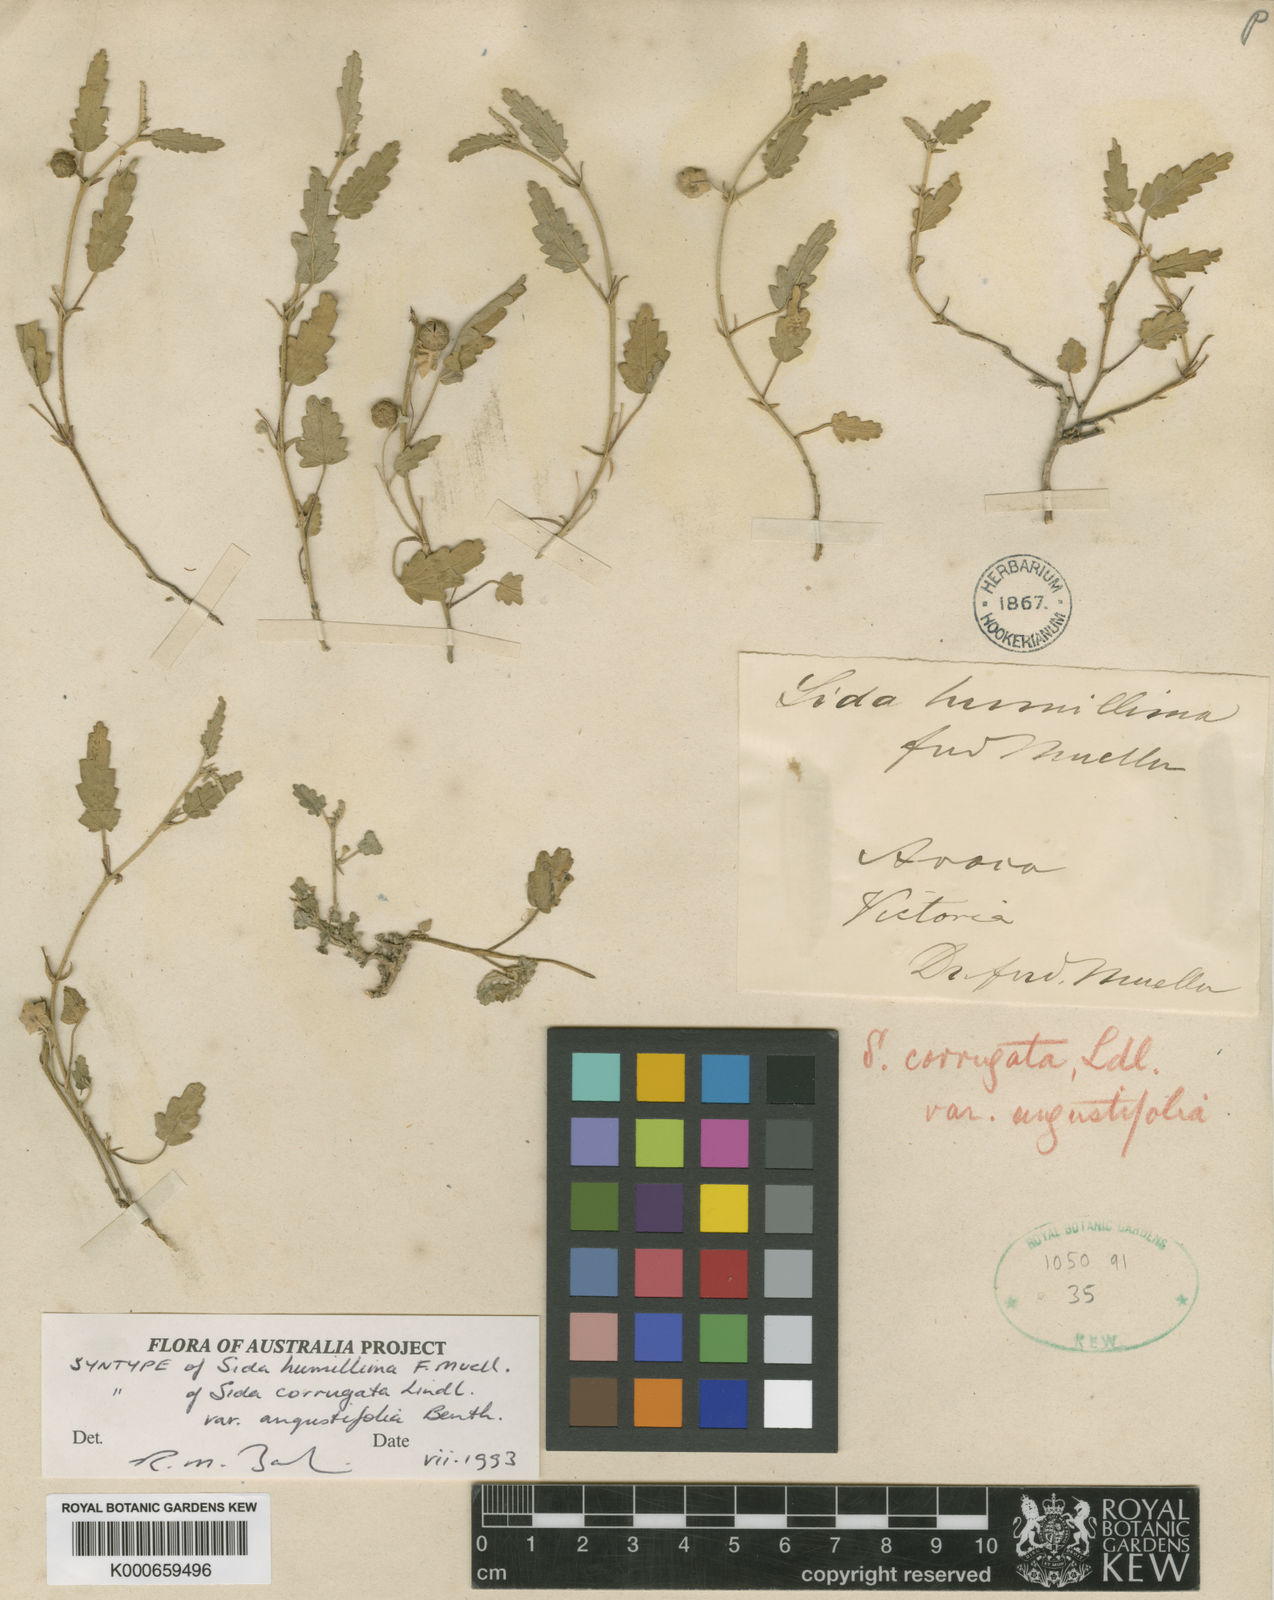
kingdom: Plantae
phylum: Tracheophyta
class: Magnoliopsida
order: Malvales
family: Malvaceae
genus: Sida
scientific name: Sida corrugata
